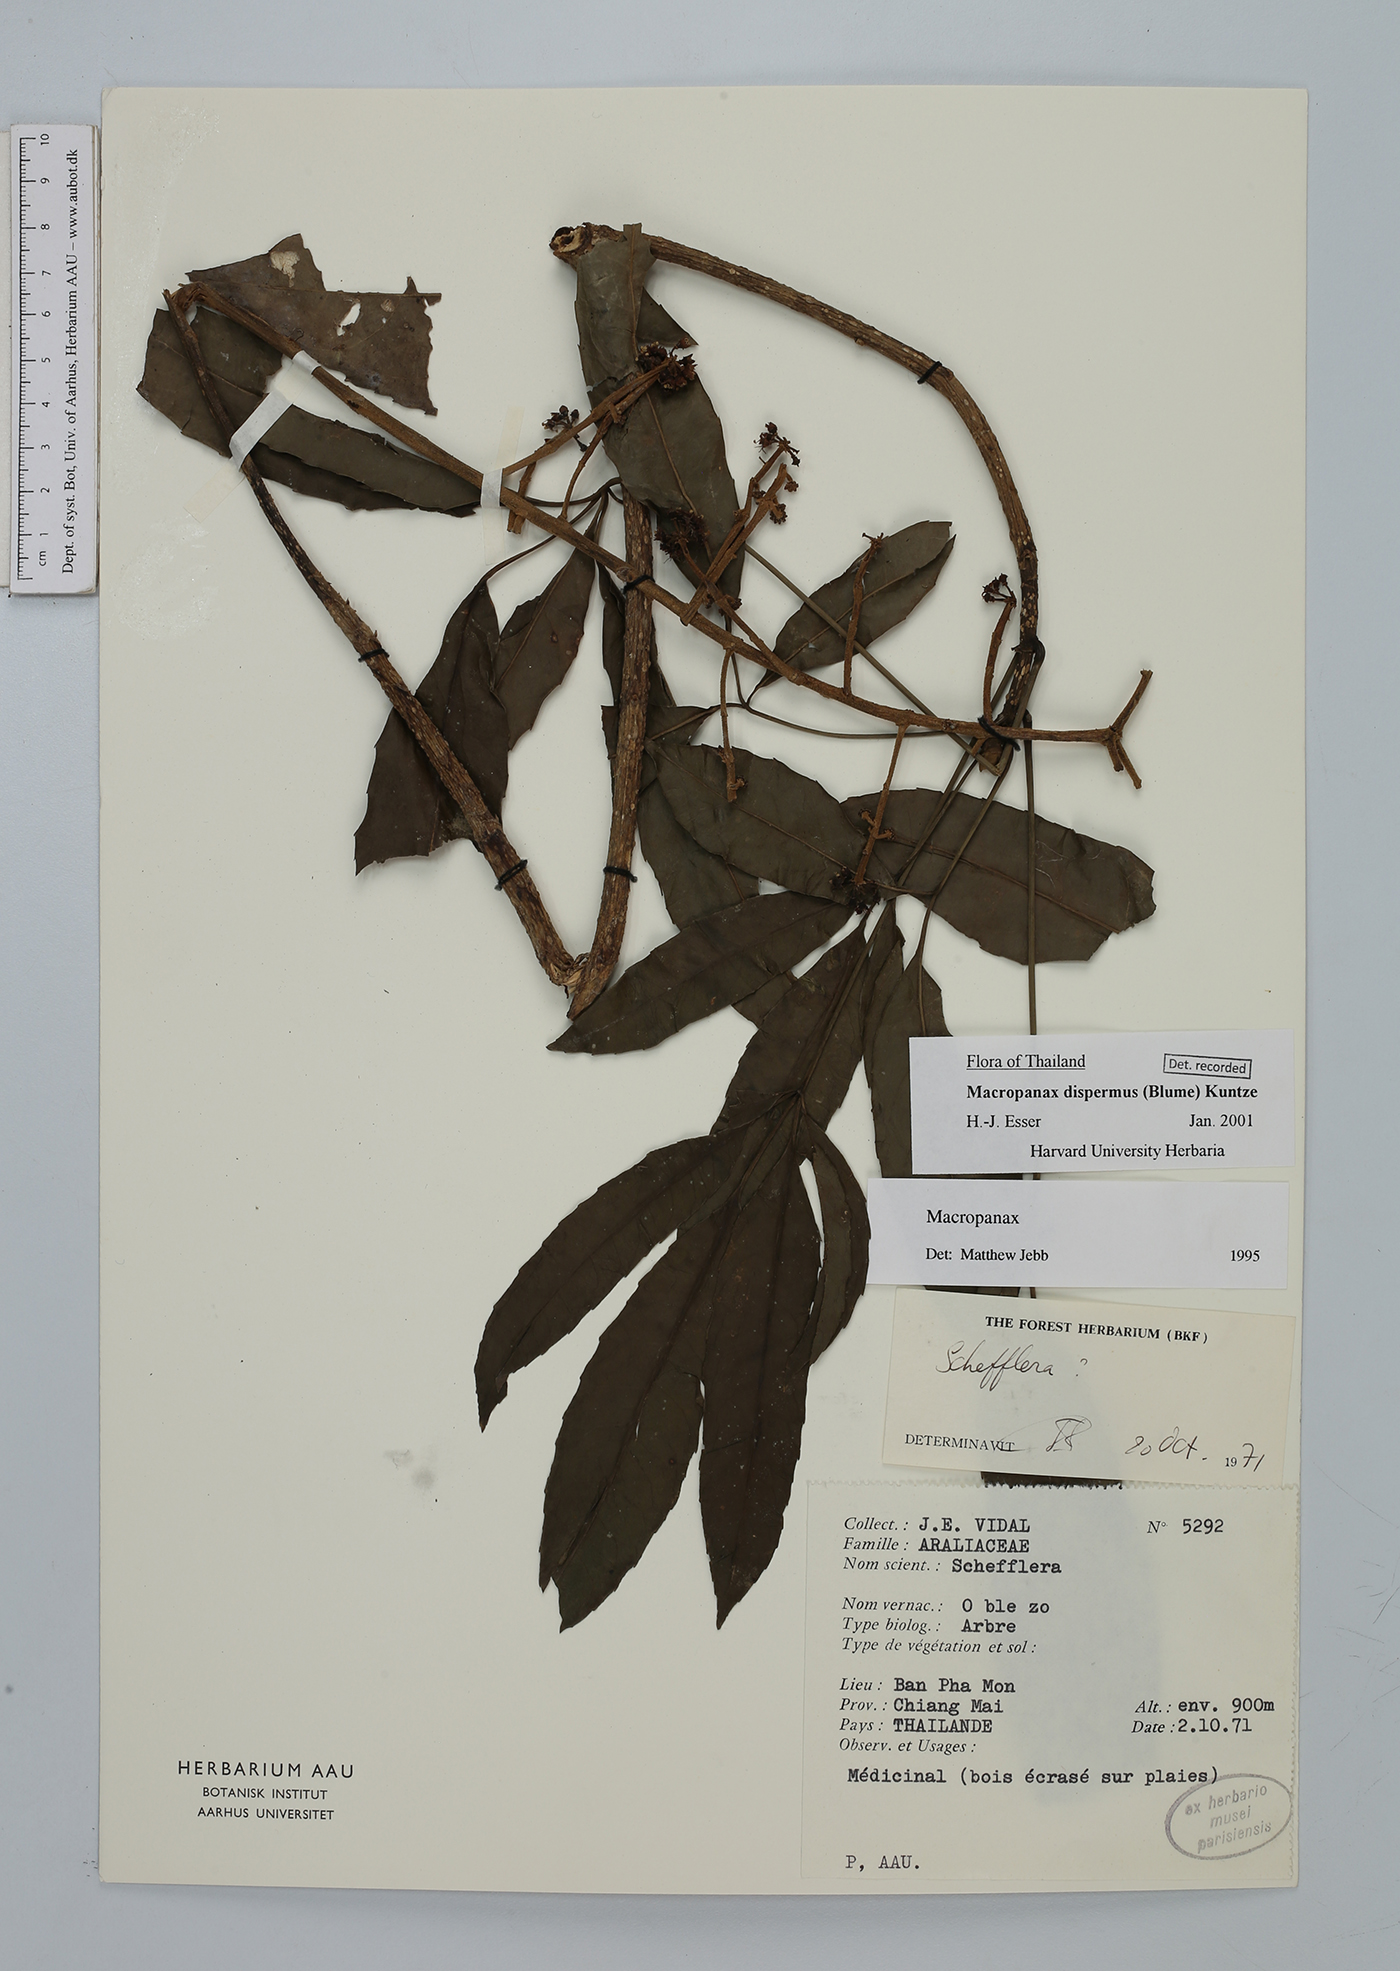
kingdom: Plantae
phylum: Tracheophyta
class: Magnoliopsida
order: Apiales
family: Araliaceae
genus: Macropanax
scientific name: Macropanax dispermus
